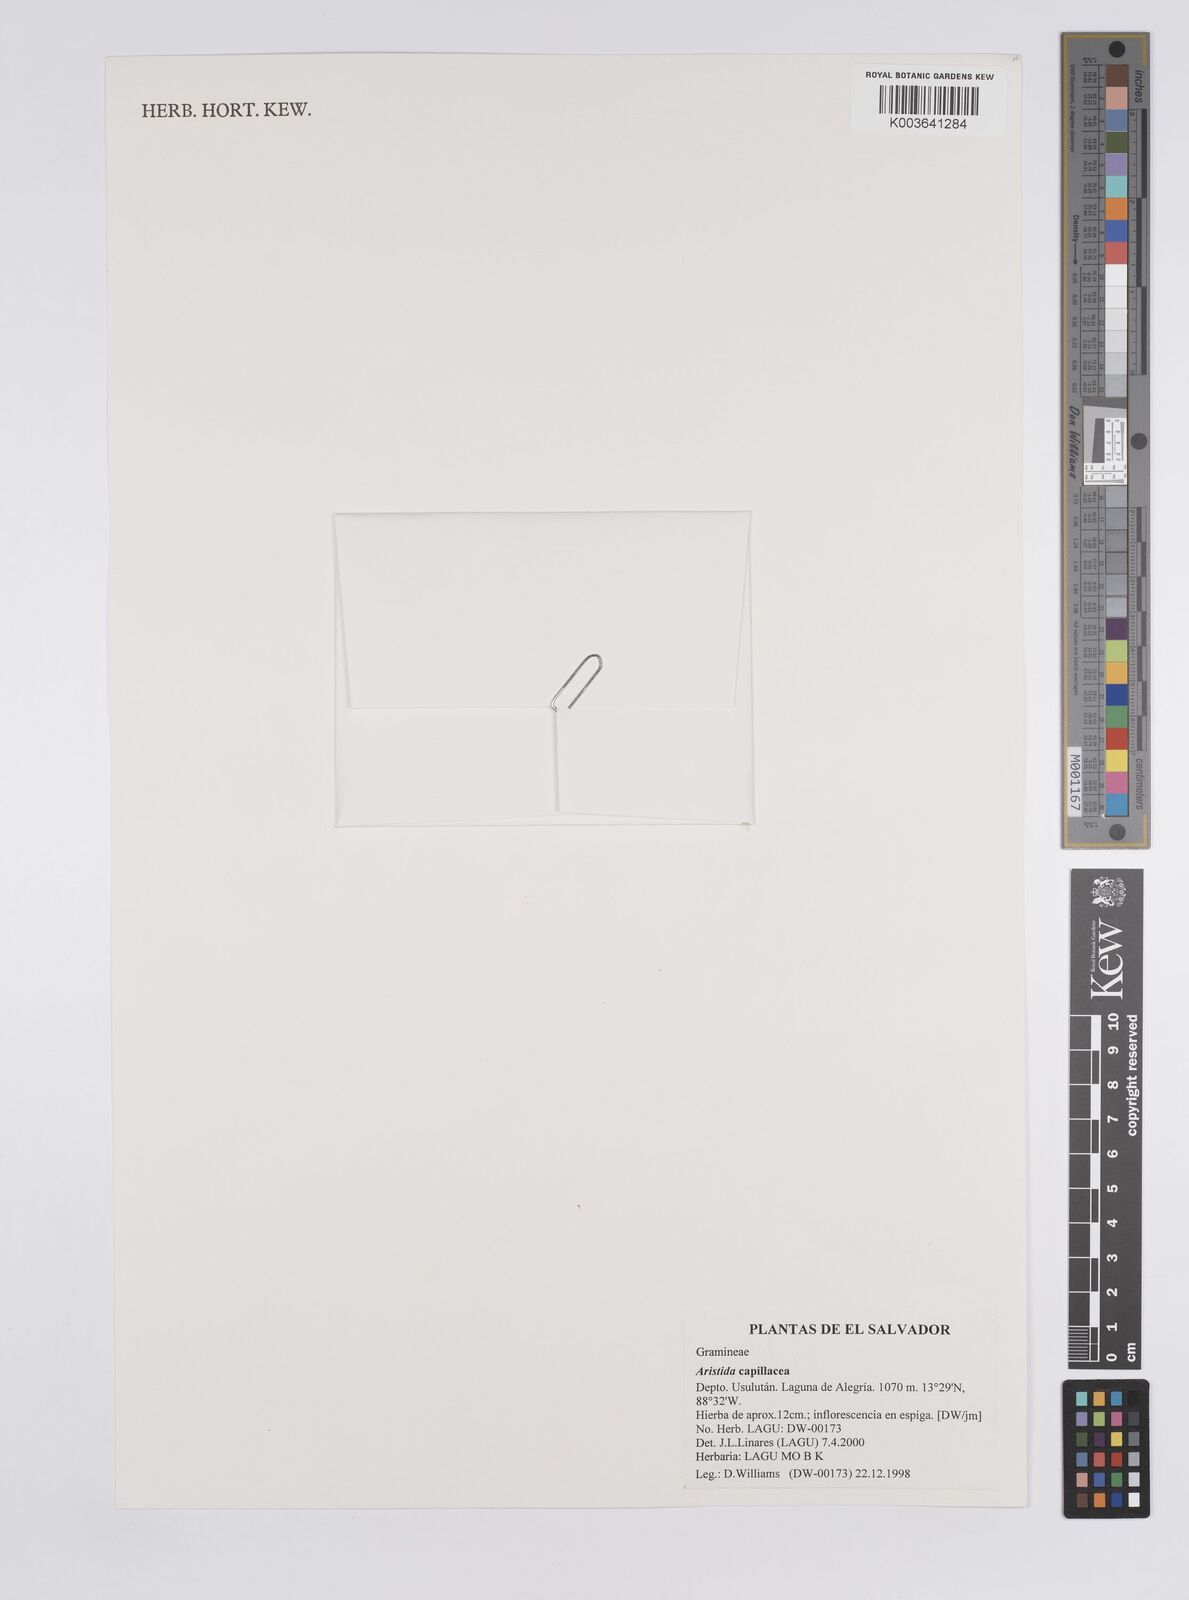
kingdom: Plantae
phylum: Tracheophyta
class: Liliopsida
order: Poales
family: Poaceae
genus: Aristida
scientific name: Aristida capillacea
